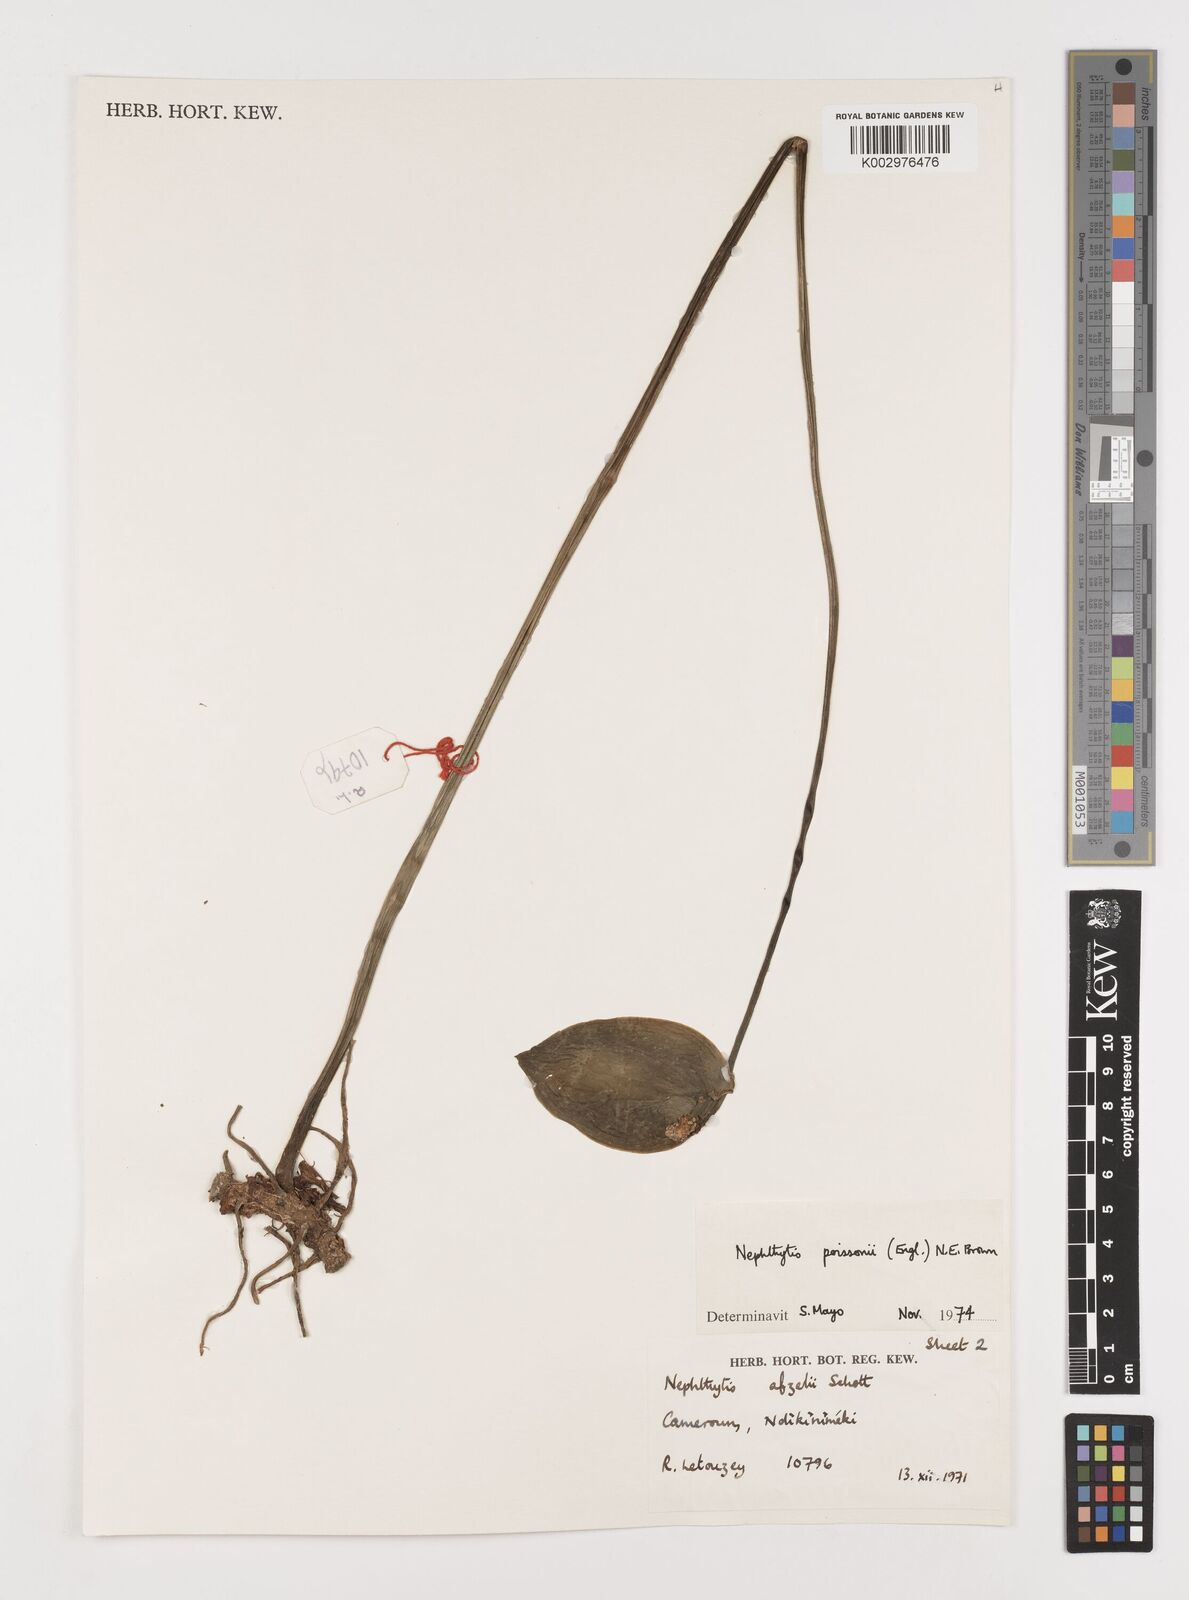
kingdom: Plantae
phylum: Tracheophyta
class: Liliopsida
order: Alismatales
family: Araceae
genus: Nephthytis
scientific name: Nephthytis poissonii
